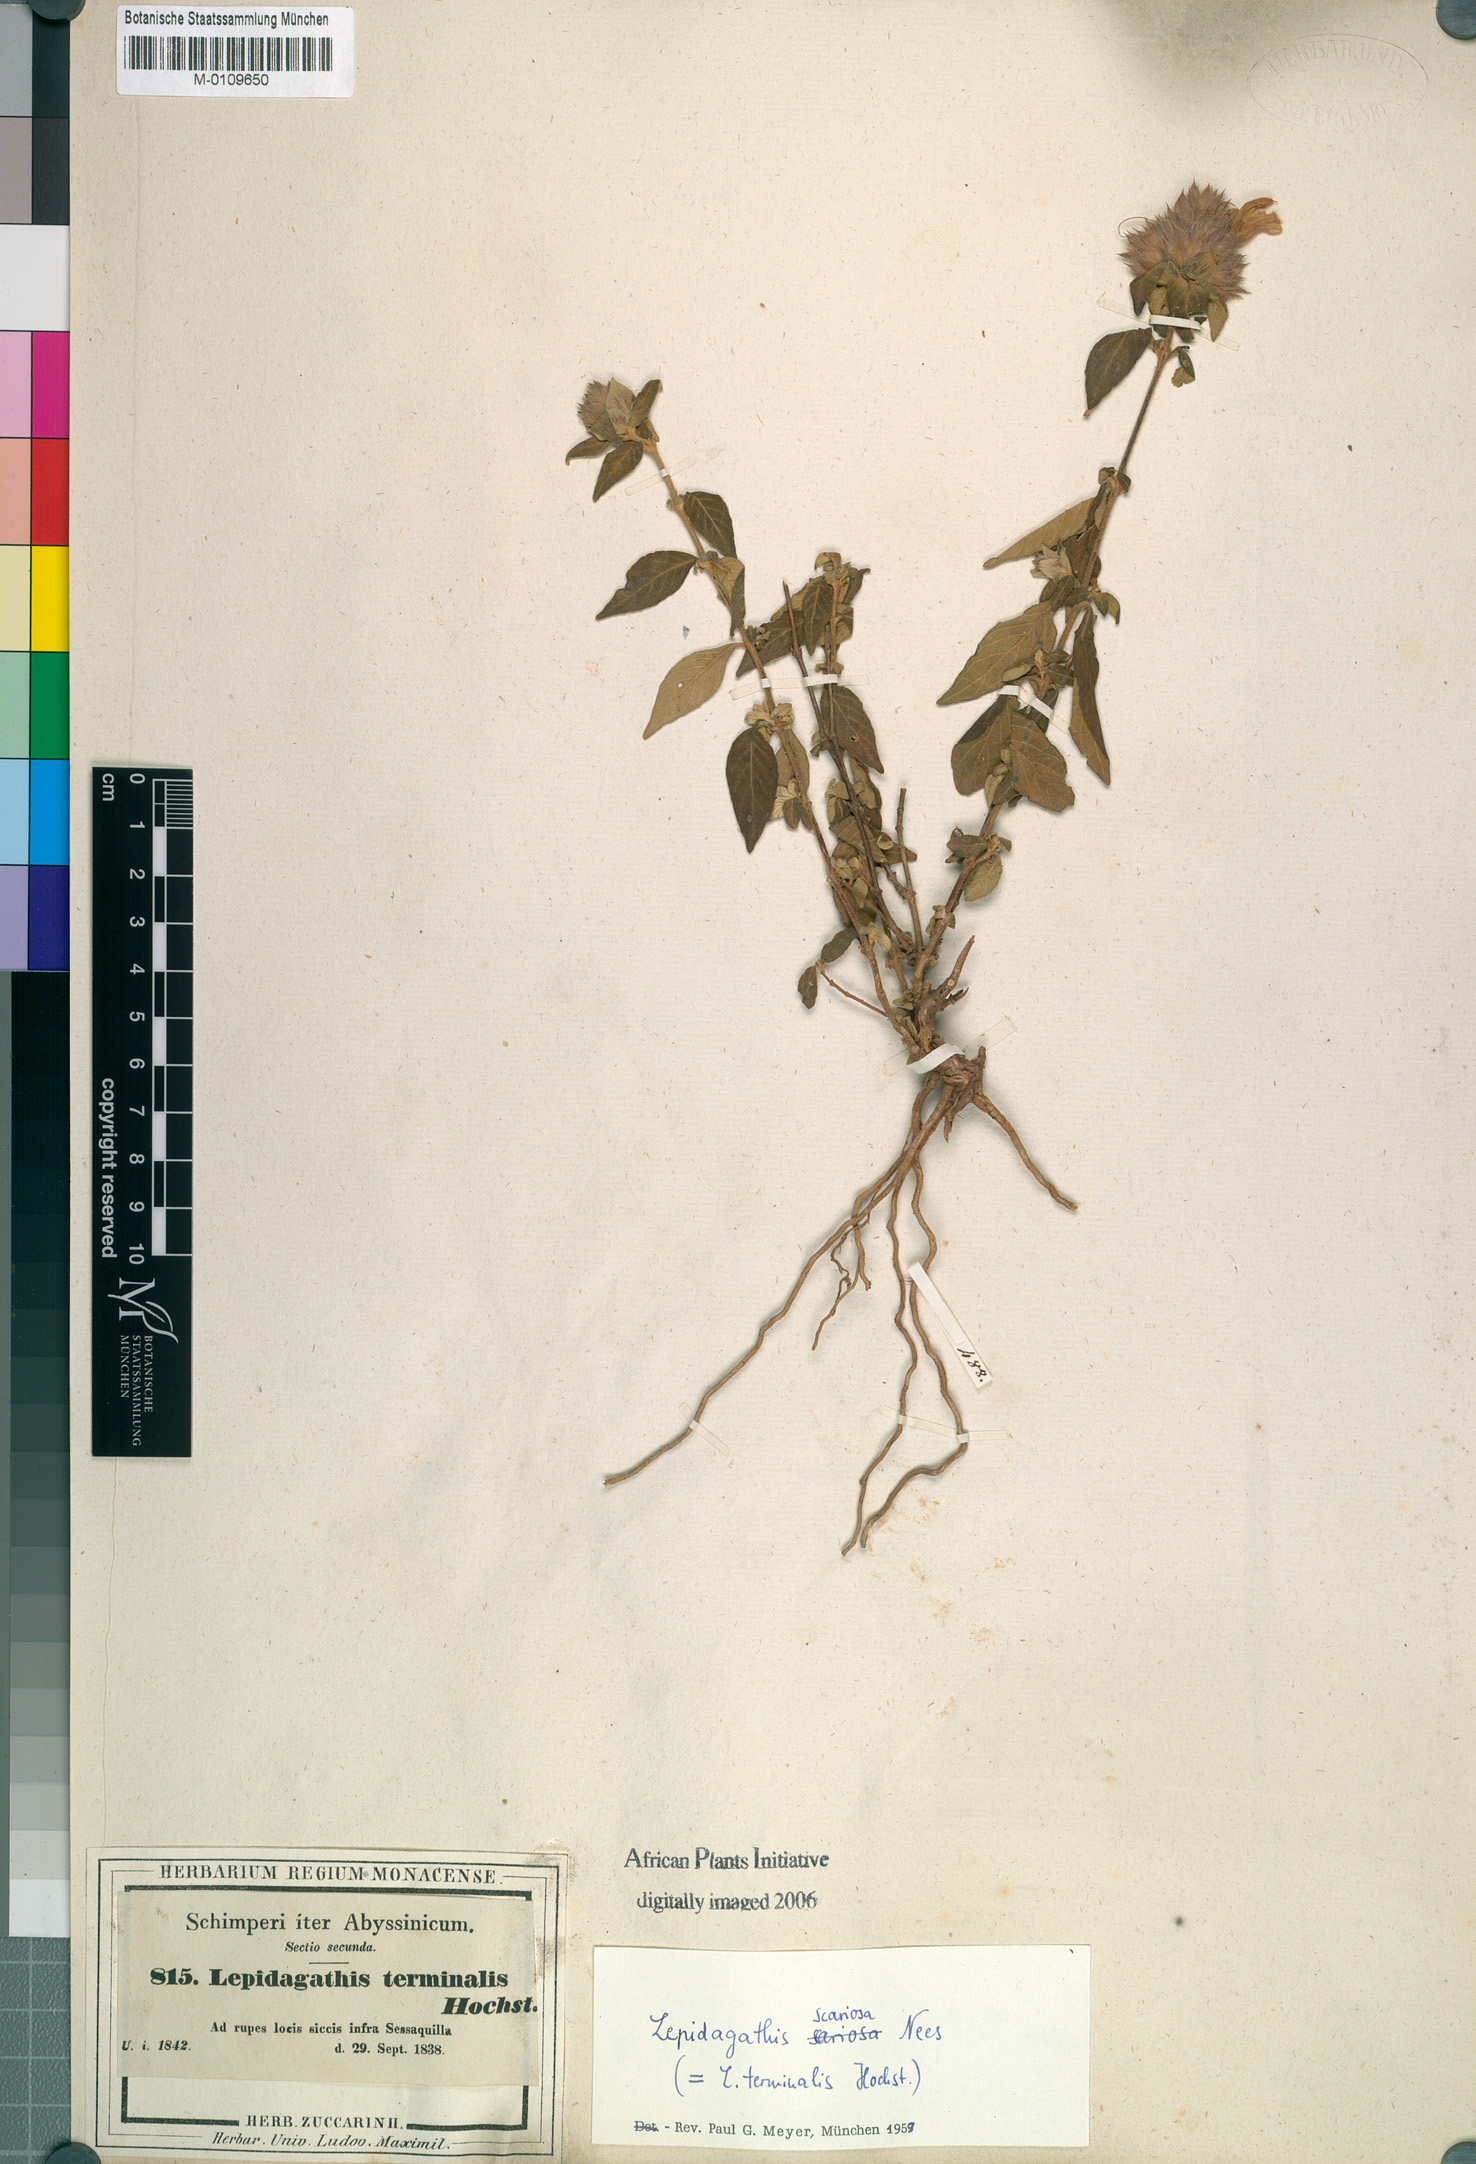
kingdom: Plantae
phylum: Tracheophyta
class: Magnoliopsida
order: Lamiales
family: Acanthaceae
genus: Lepidagathis
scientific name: Lepidagathis scariosa
